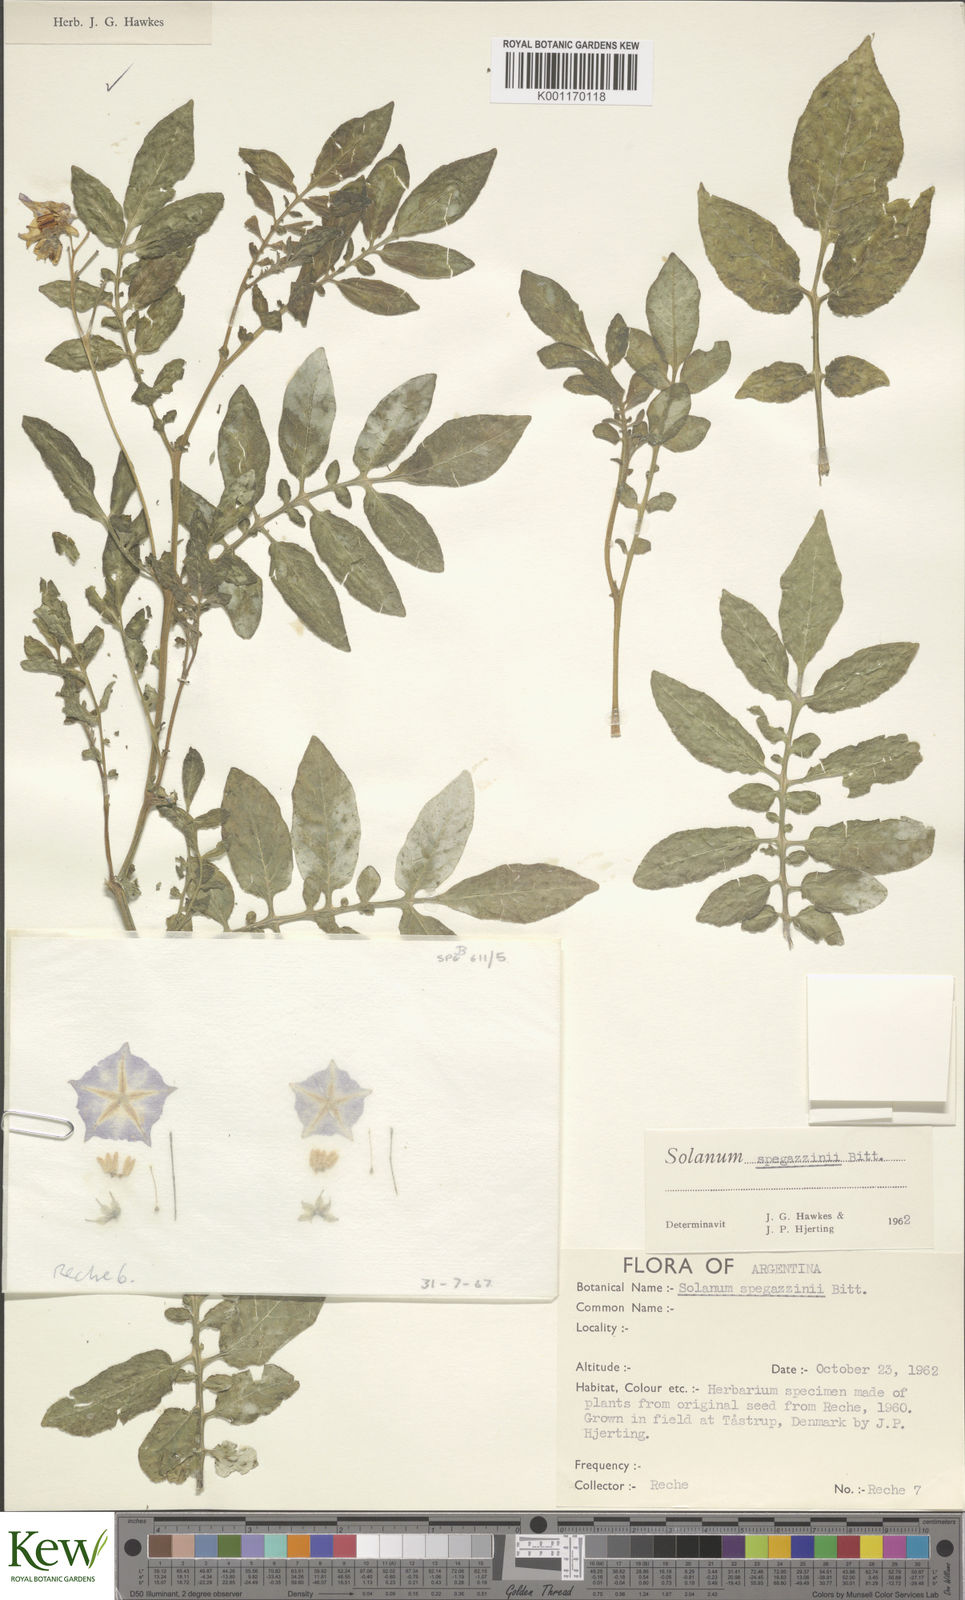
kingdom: Plantae
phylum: Tracheophyta
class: Magnoliopsida
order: Solanales
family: Solanaceae
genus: Solanum
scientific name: Solanum brevicaule
